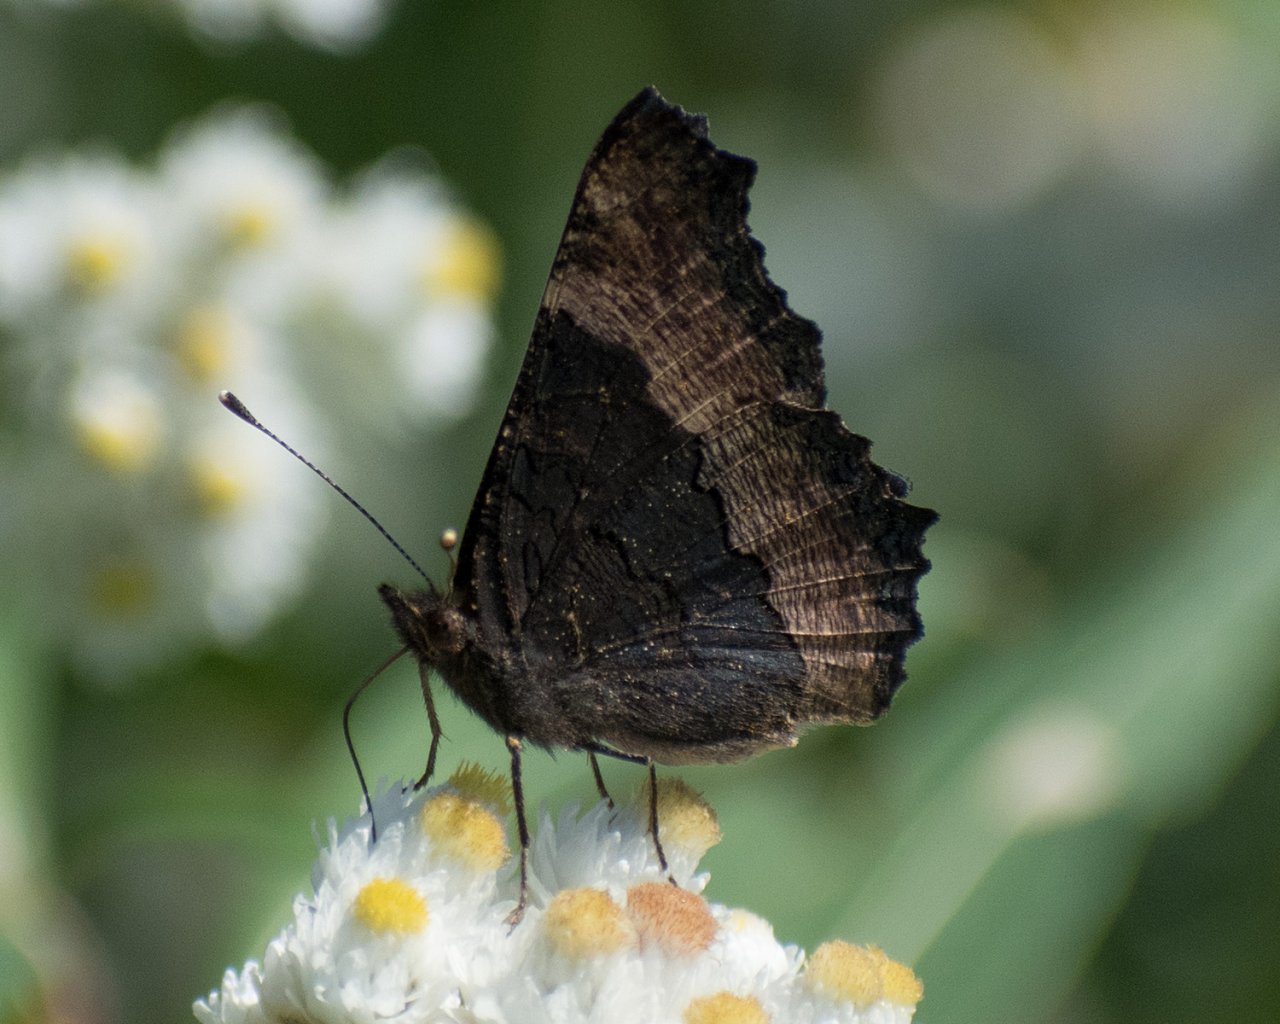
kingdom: Animalia
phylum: Arthropoda
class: Insecta
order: Lepidoptera
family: Nymphalidae
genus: Aglais
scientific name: Aglais milberti
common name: Milbert's Tortoiseshell
